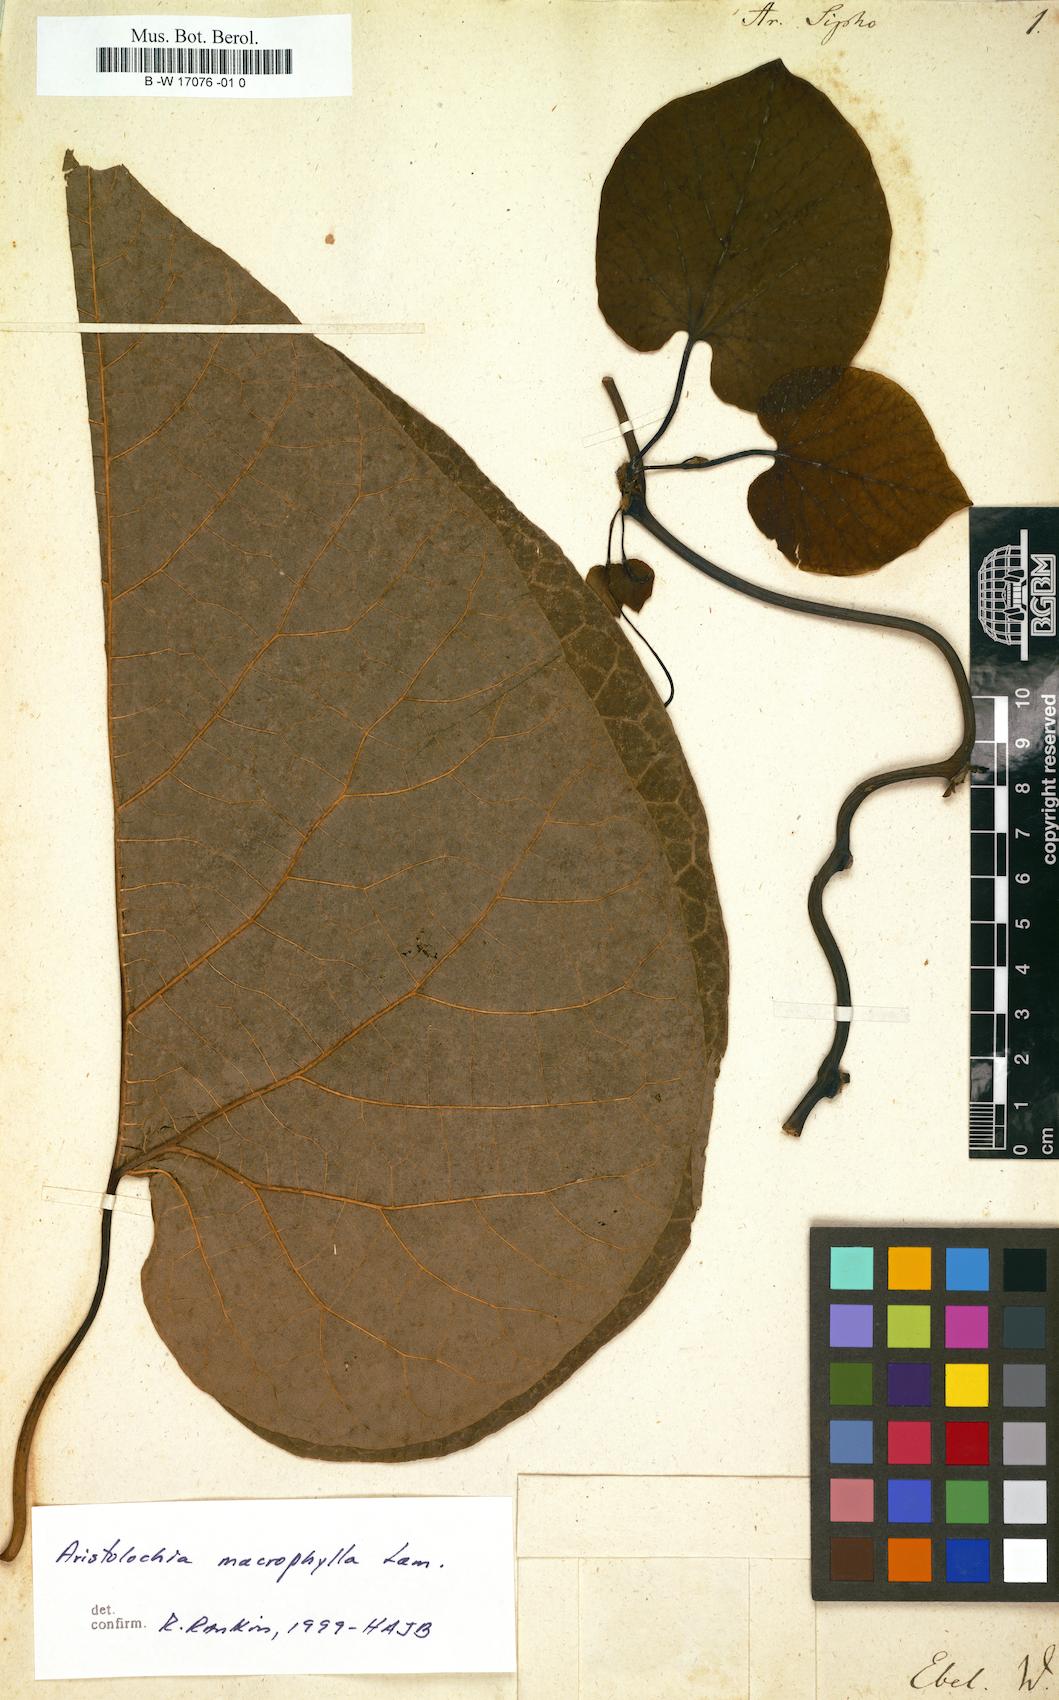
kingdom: Plantae
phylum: Tracheophyta
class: Magnoliopsida
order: Piperales
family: Aristolochiaceae
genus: Isotrema
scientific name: Isotrema macrophyllum
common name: Dutchman's-pipe
